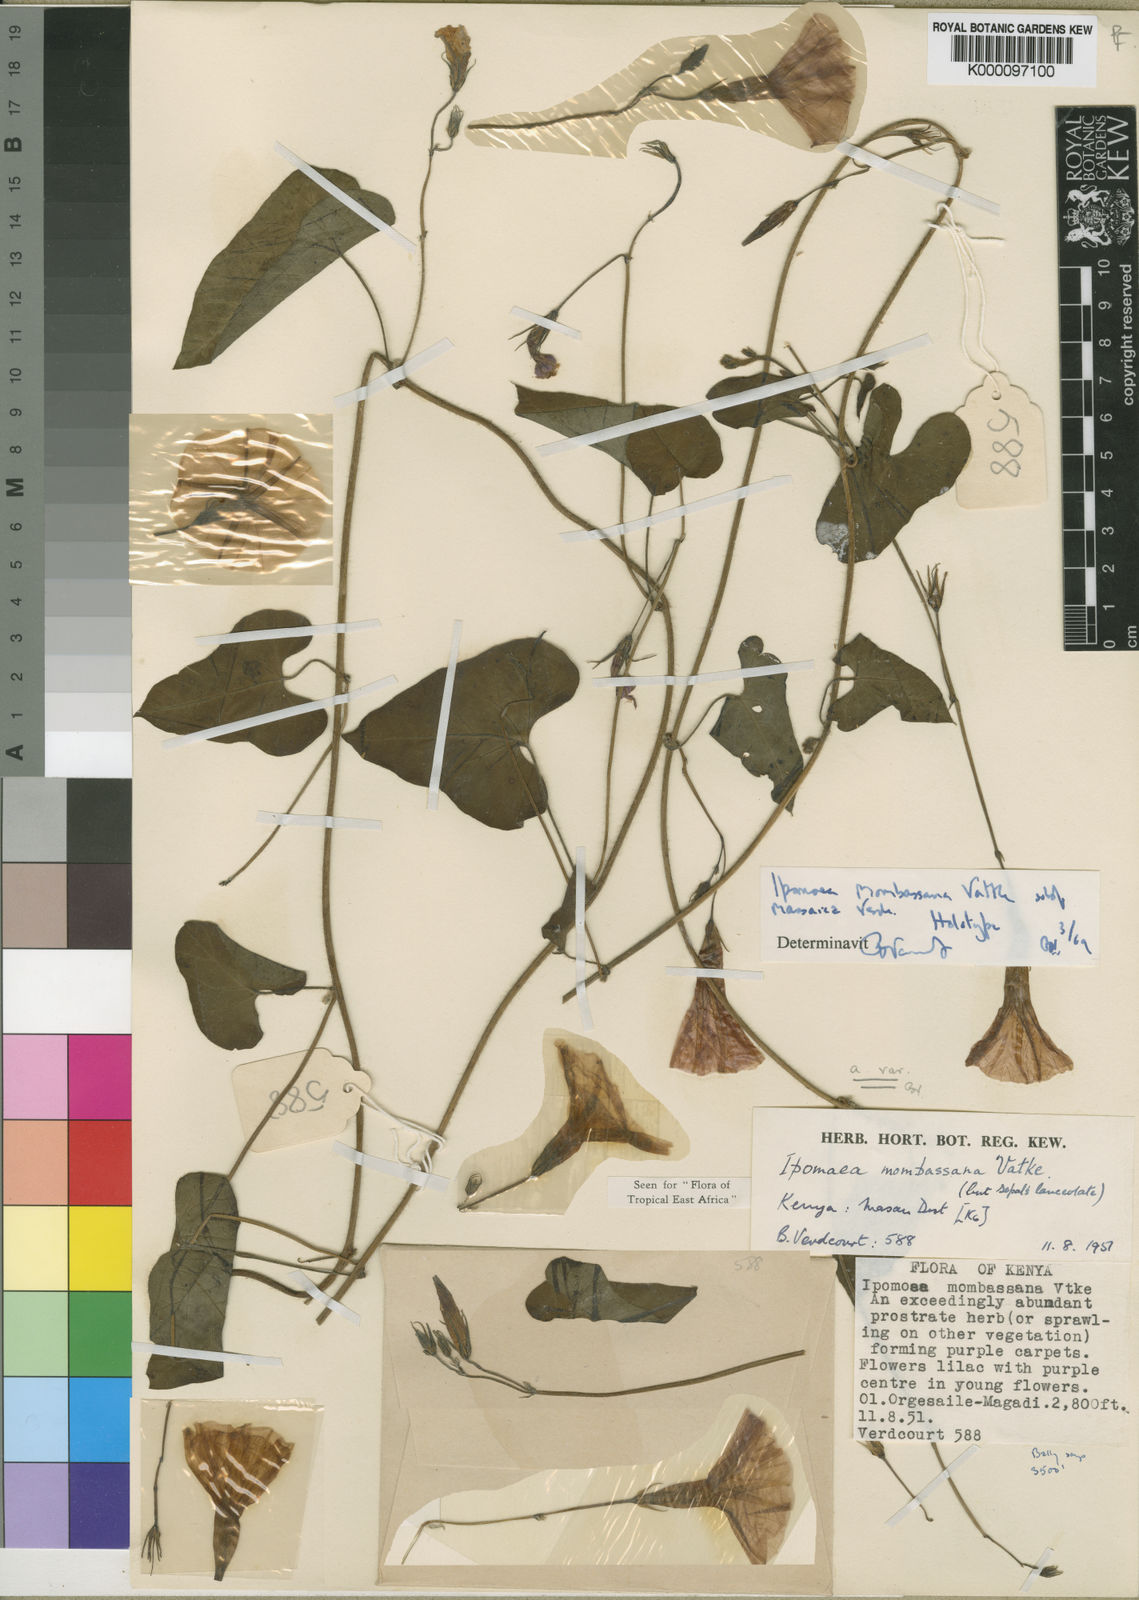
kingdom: Plantae
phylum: Tracheophyta
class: Magnoliopsida
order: Solanales
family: Convolvulaceae
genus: Ipomoea
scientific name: Ipomoea mombassana
